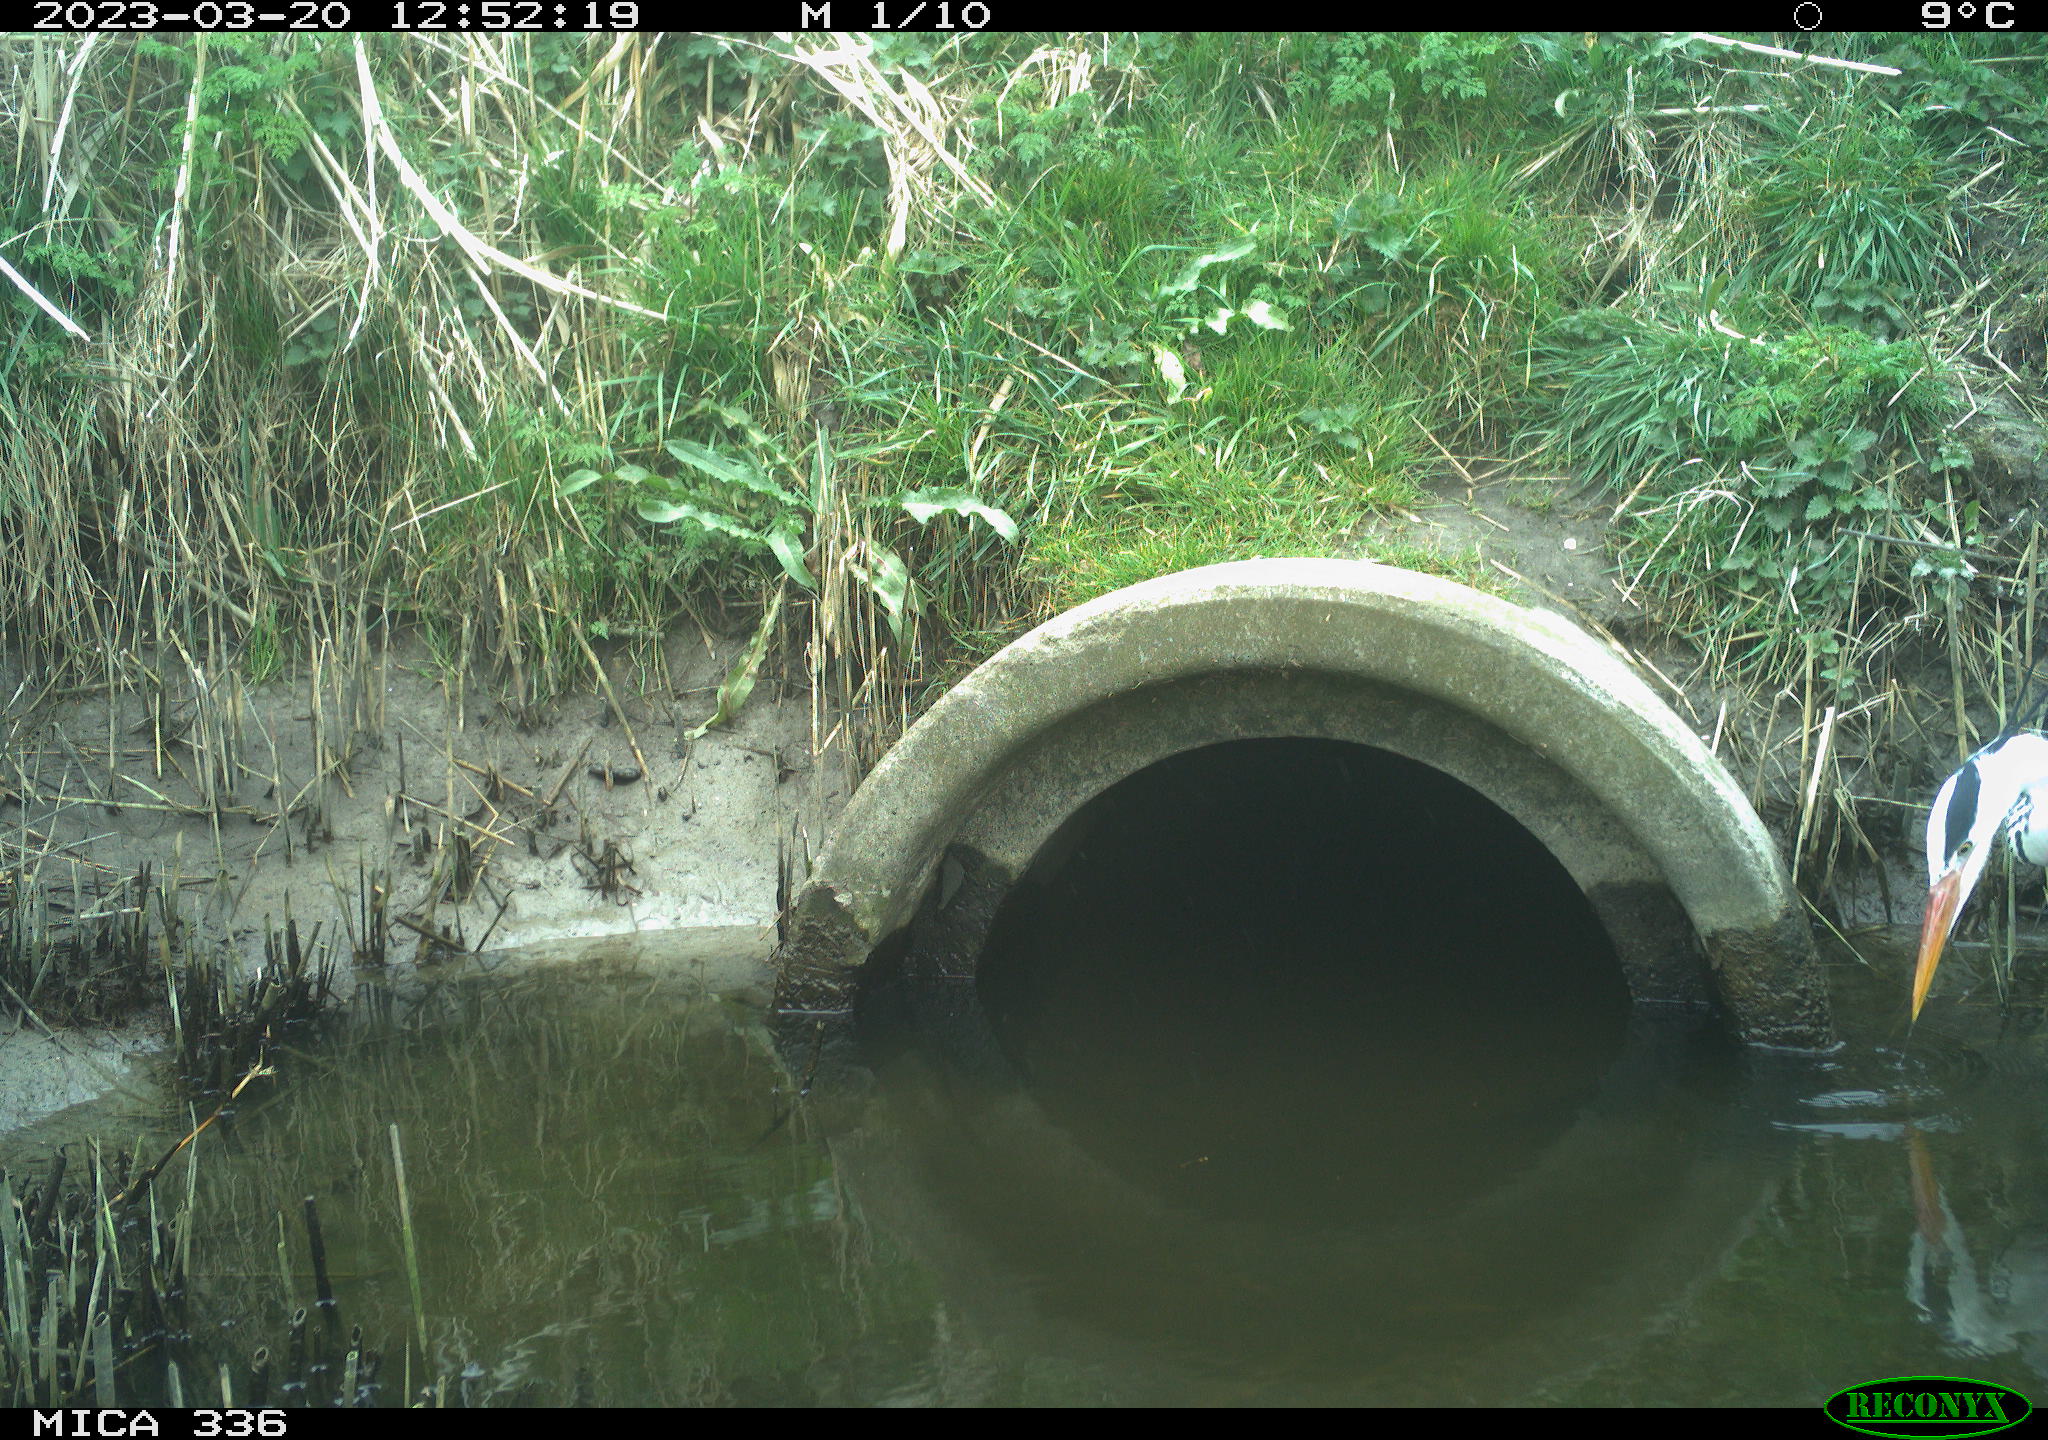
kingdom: Animalia
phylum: Chordata
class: Aves
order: Pelecaniformes
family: Ardeidae
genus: Ardea
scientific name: Ardea cinerea
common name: Grey heron
